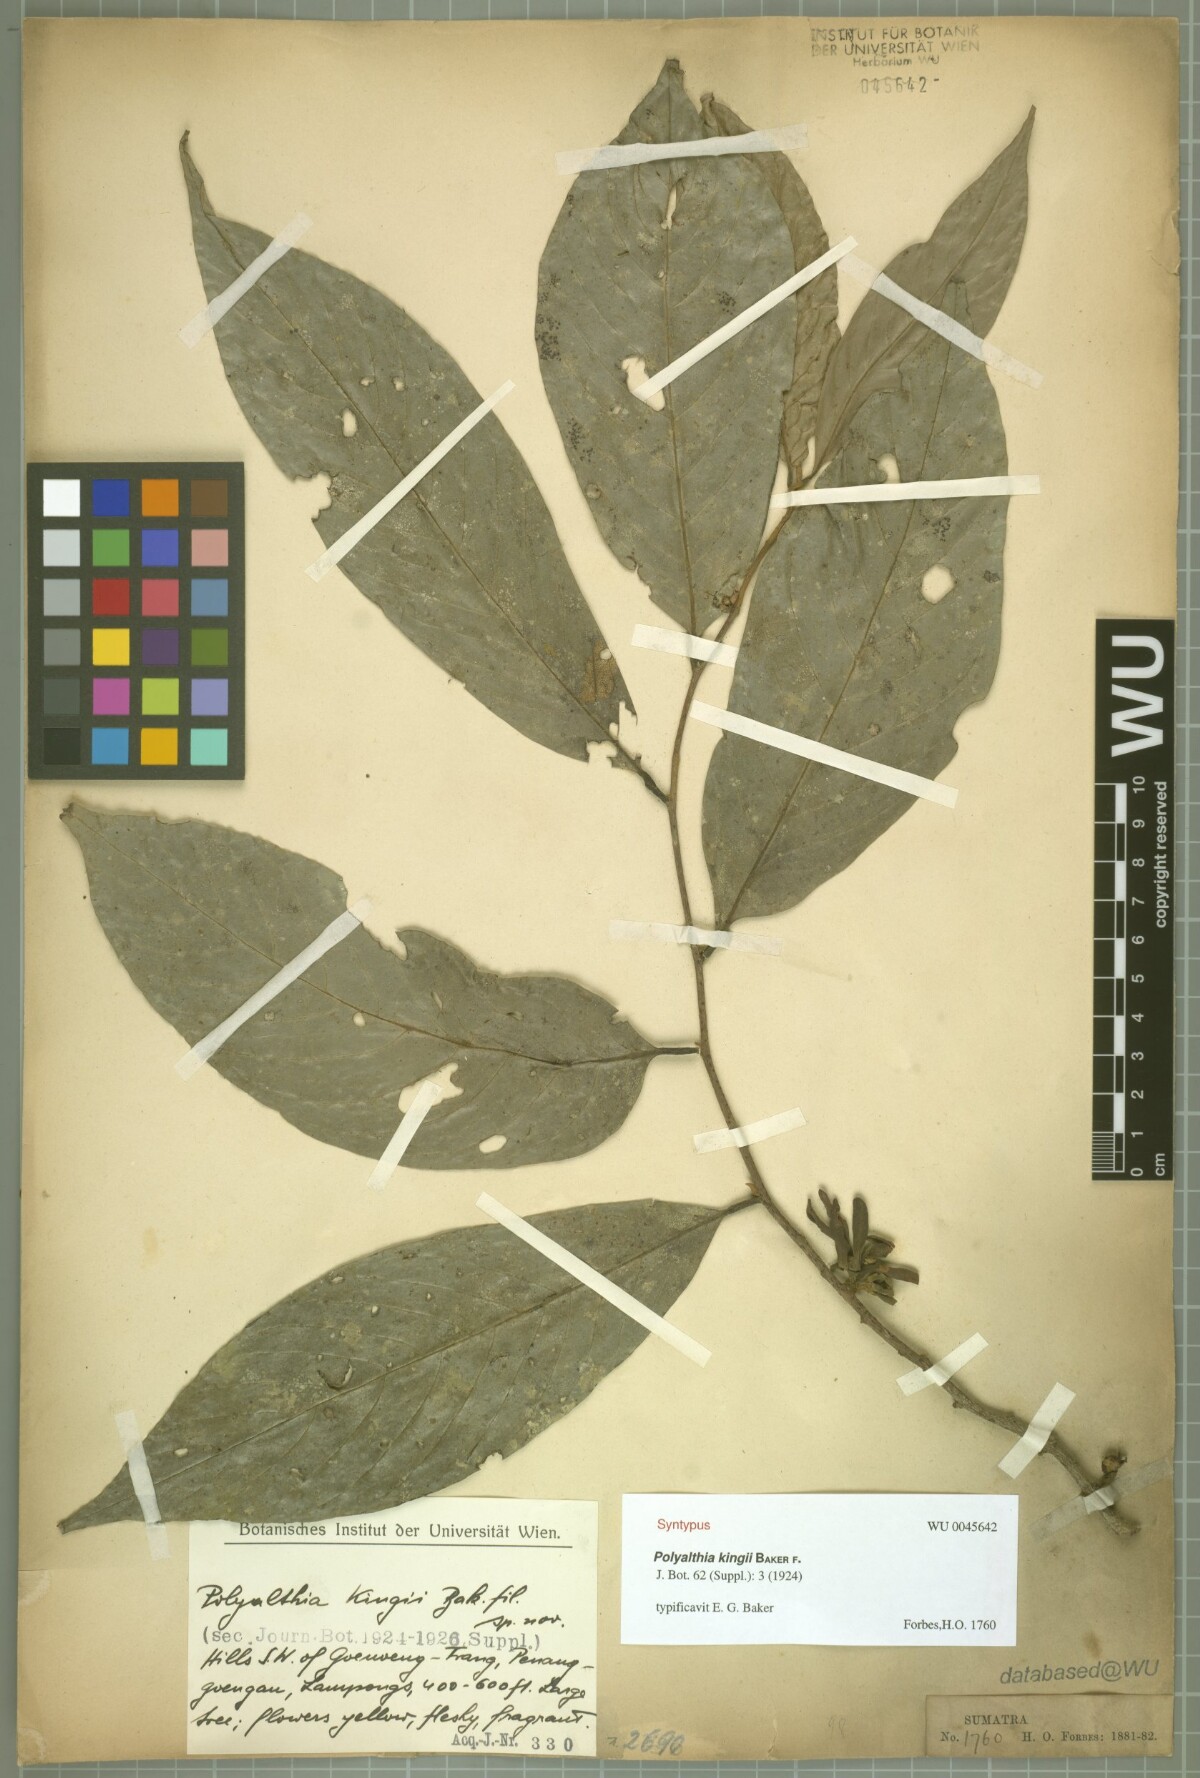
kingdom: Plantae
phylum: Tracheophyta
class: Magnoliopsida
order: Magnoliales
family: Annonaceae
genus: Polyalthia
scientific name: Polyalthia kingii
